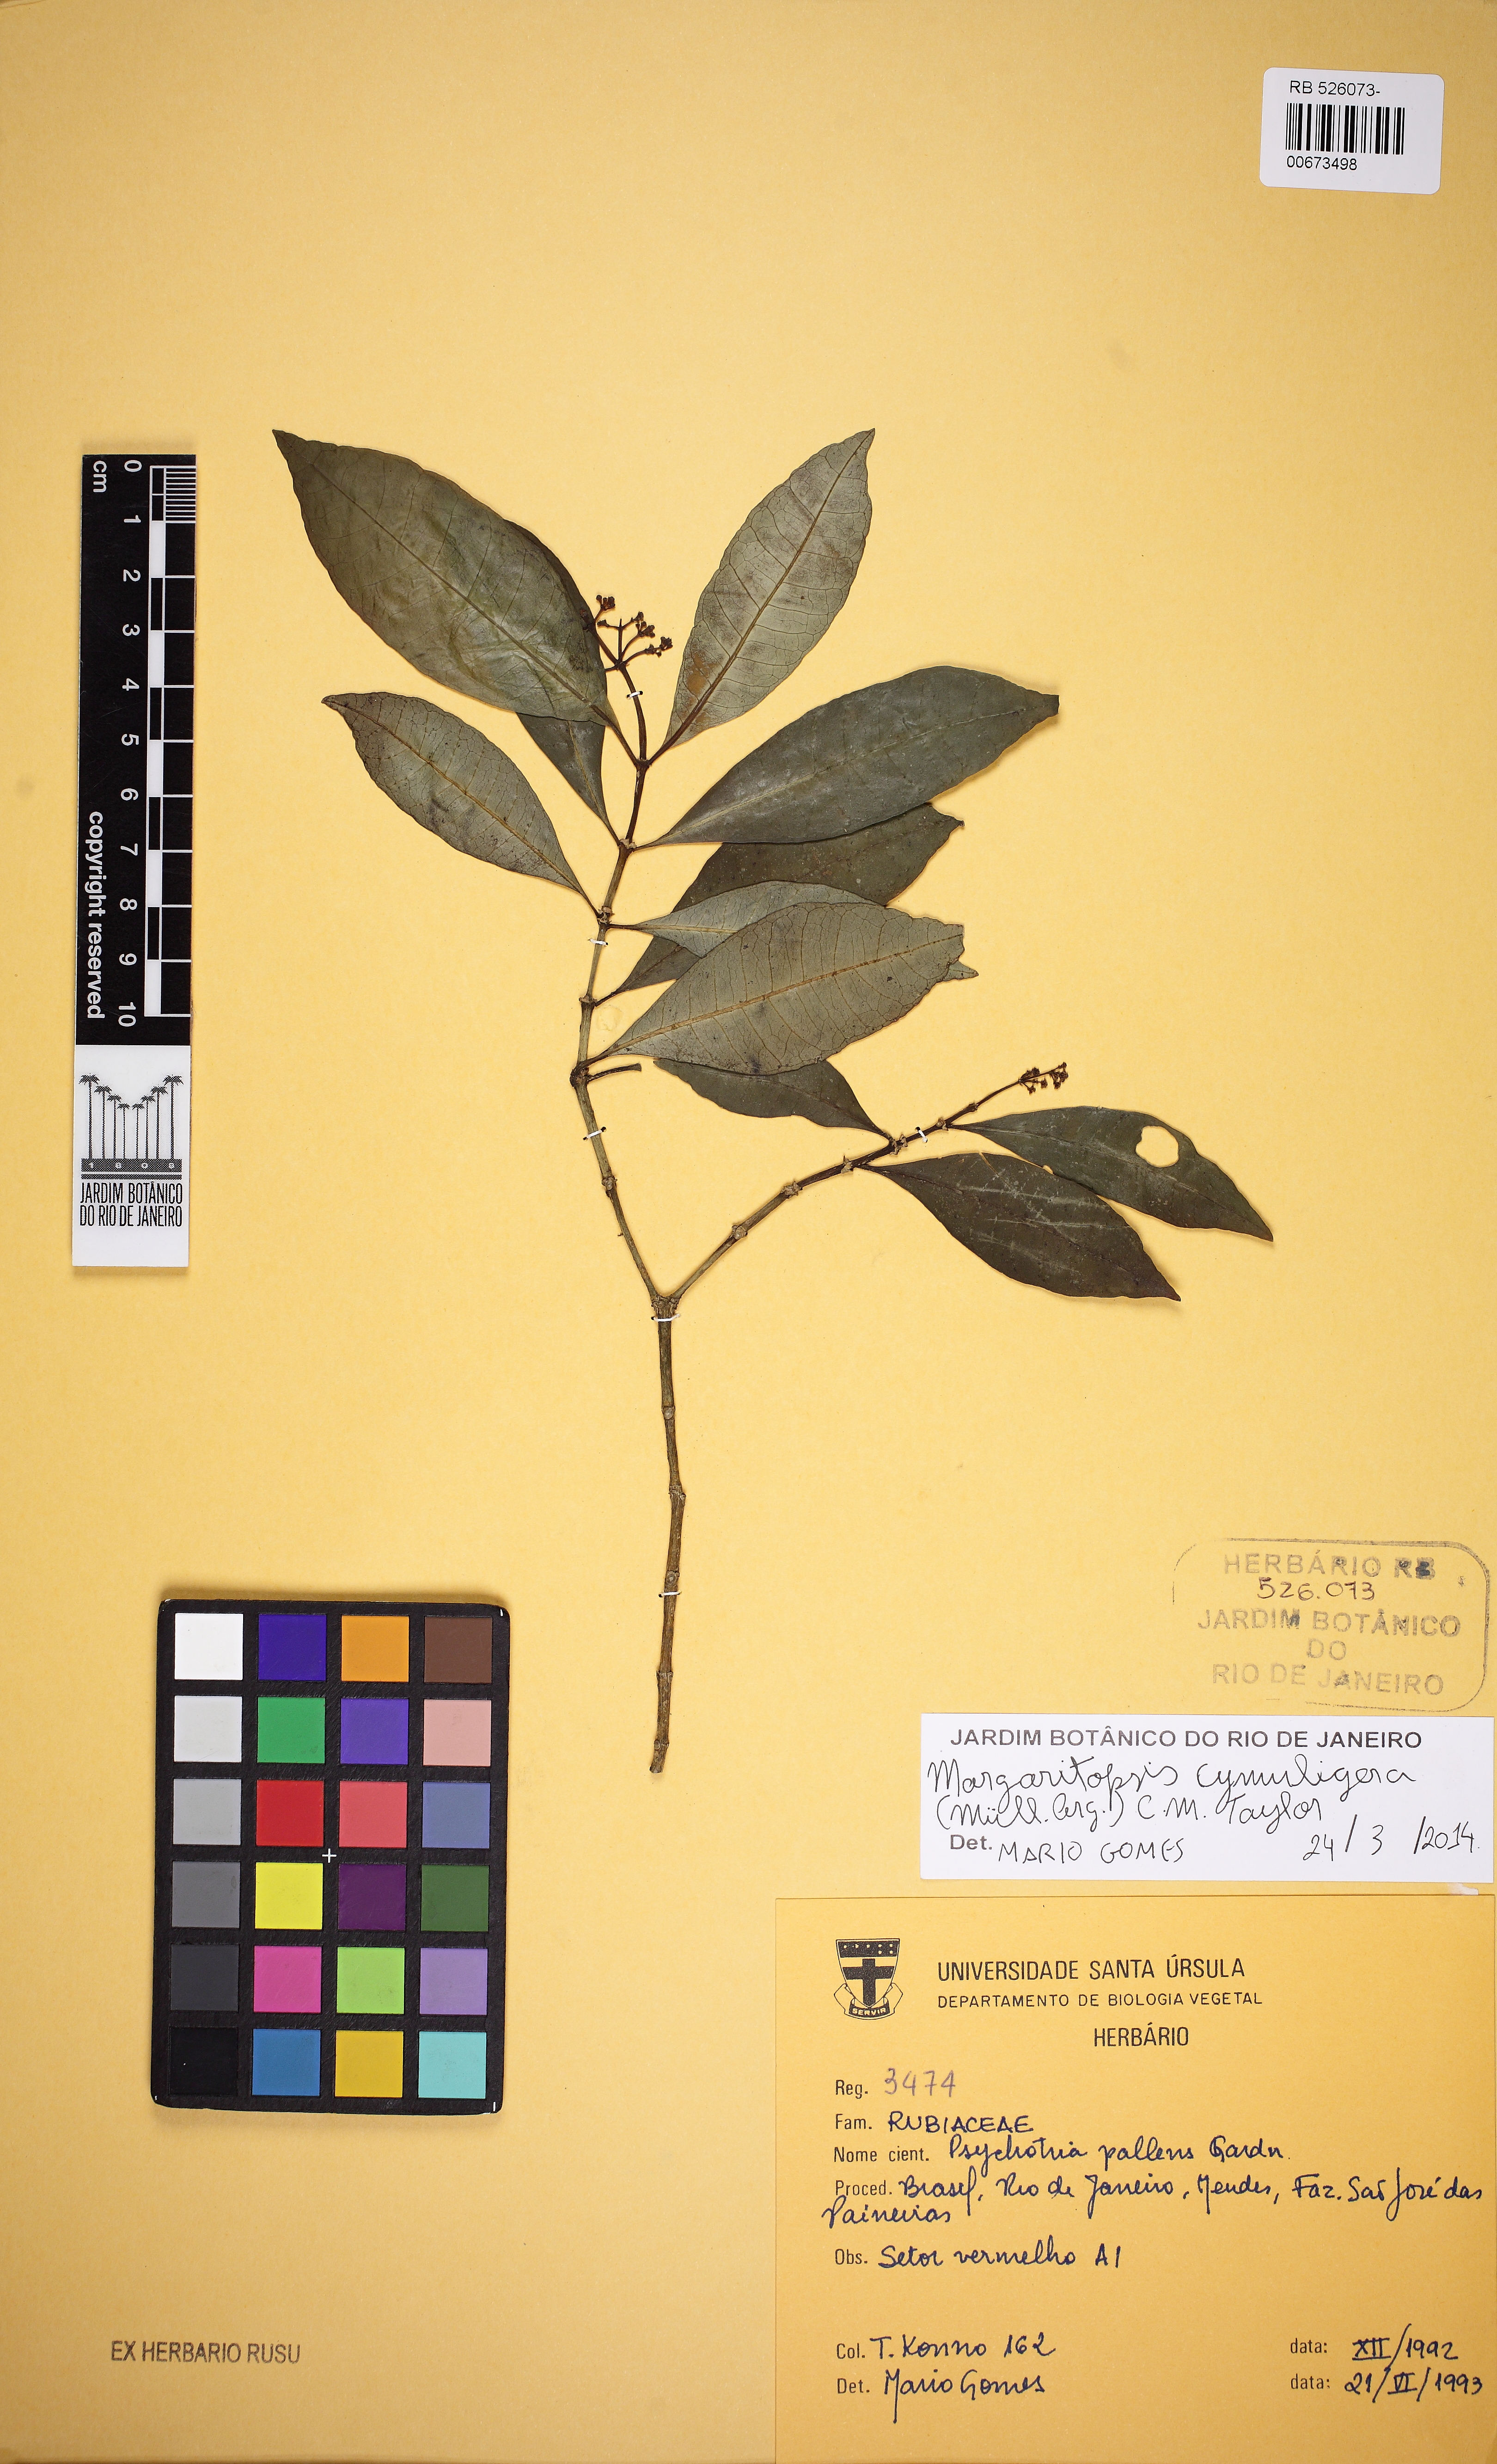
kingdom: Plantae
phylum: Tracheophyta
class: Magnoliopsida
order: Gentianales
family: Rubiaceae
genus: Eumachia
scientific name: Eumachia cymuligera
